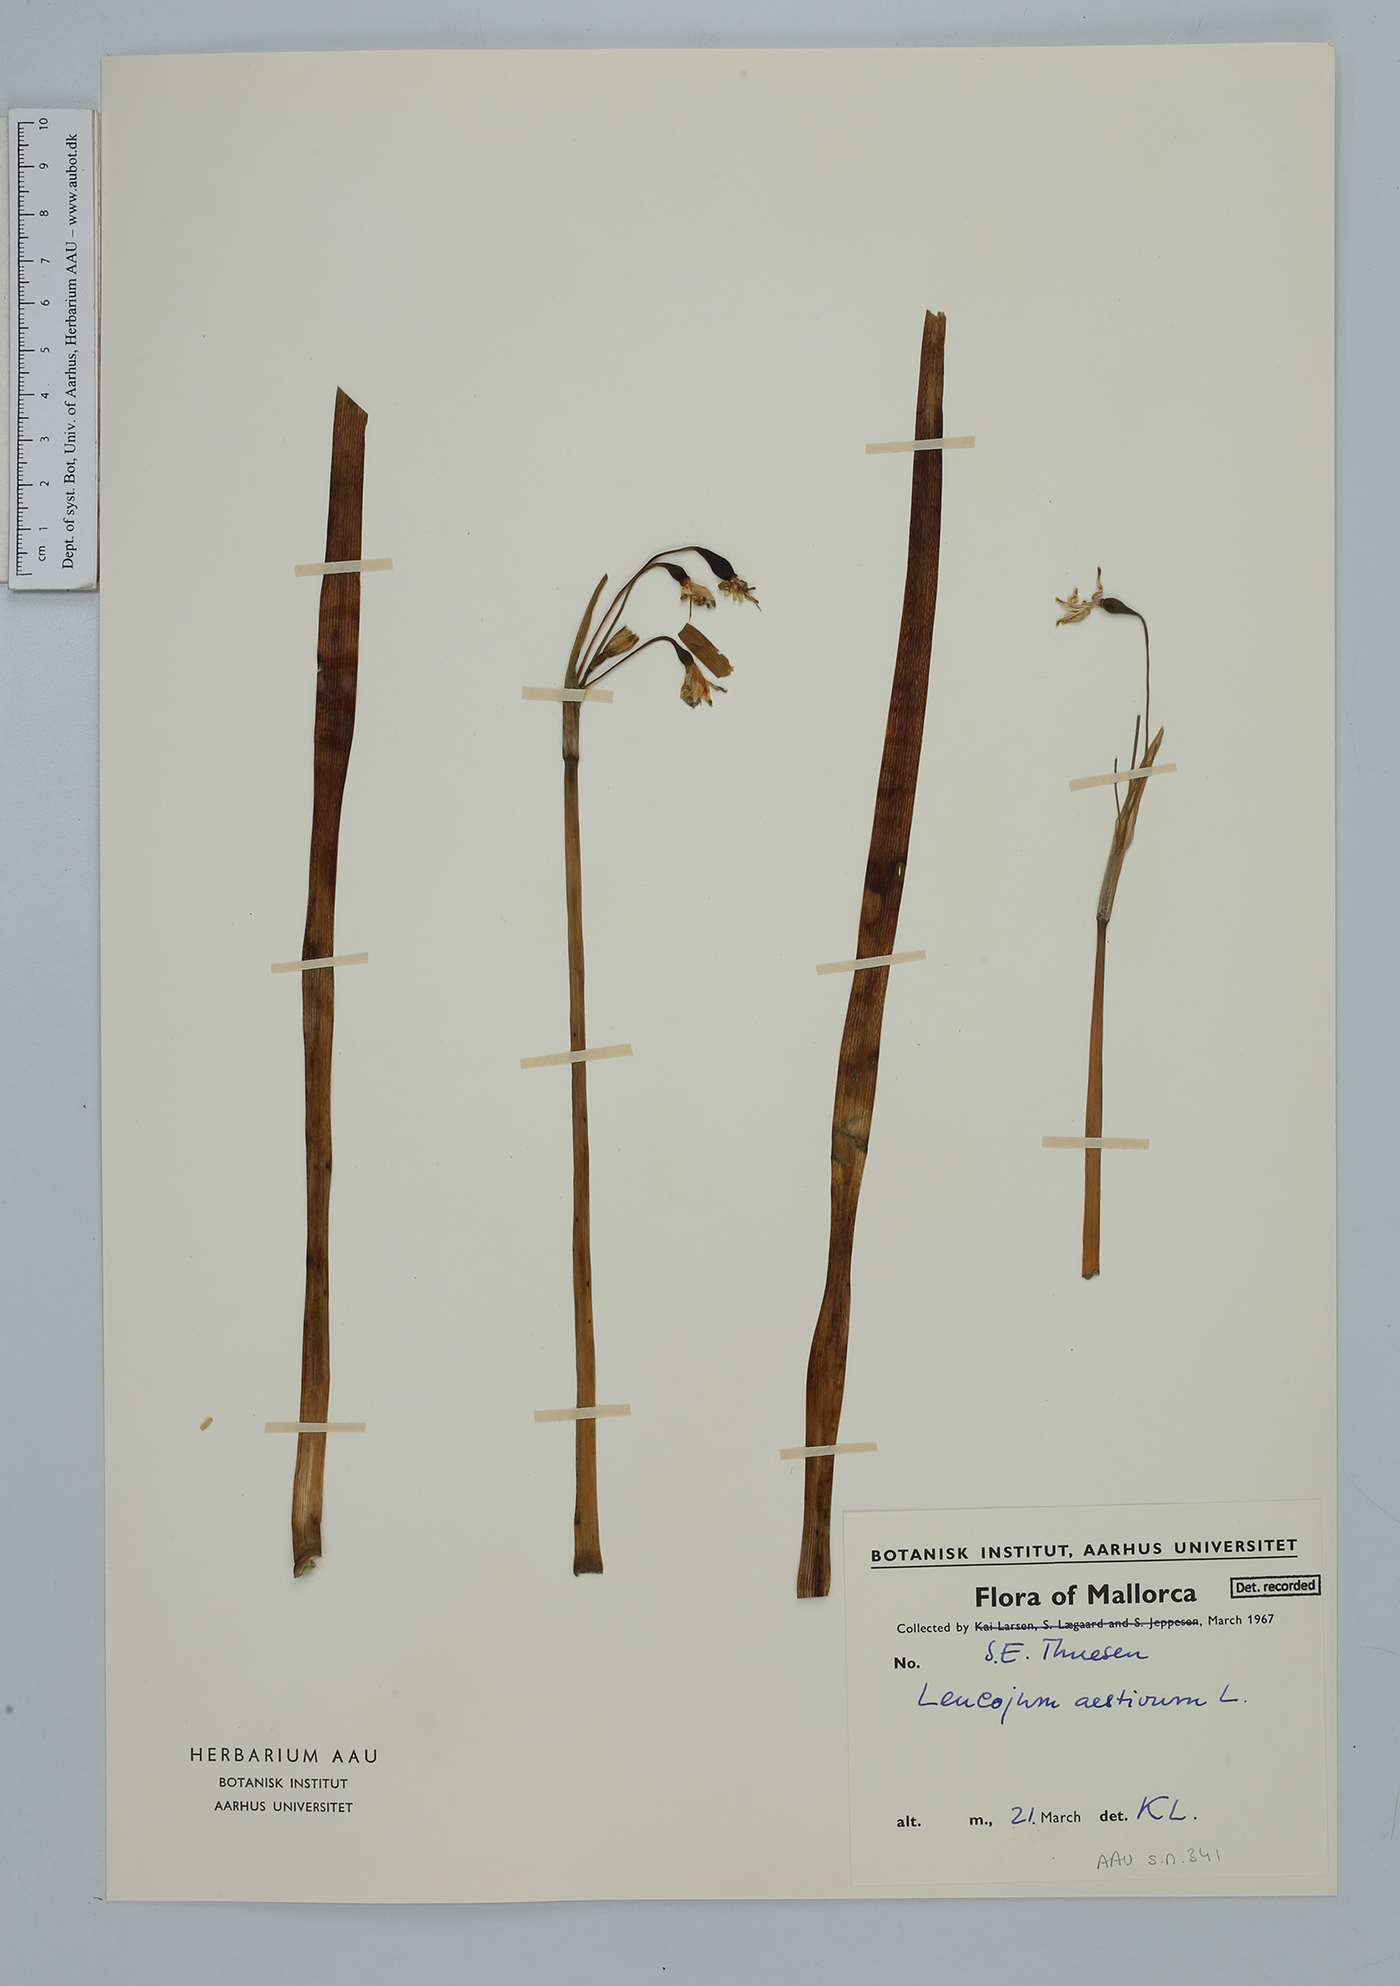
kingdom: Plantae
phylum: Tracheophyta
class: Liliopsida
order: Asparagales
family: Amaryllidaceae
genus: Leucojum
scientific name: Leucojum aestivum
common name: Summer snowflake
